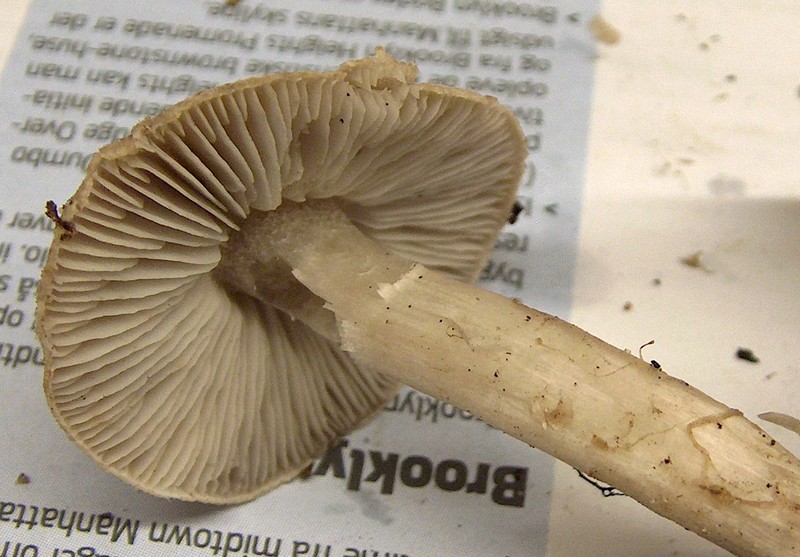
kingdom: Fungi
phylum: Basidiomycota
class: Agaricomycetes
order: Agaricales
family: Tricholomataceae
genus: Tricholoma
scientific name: Tricholoma terreum
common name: jordfarvet ridderhat
